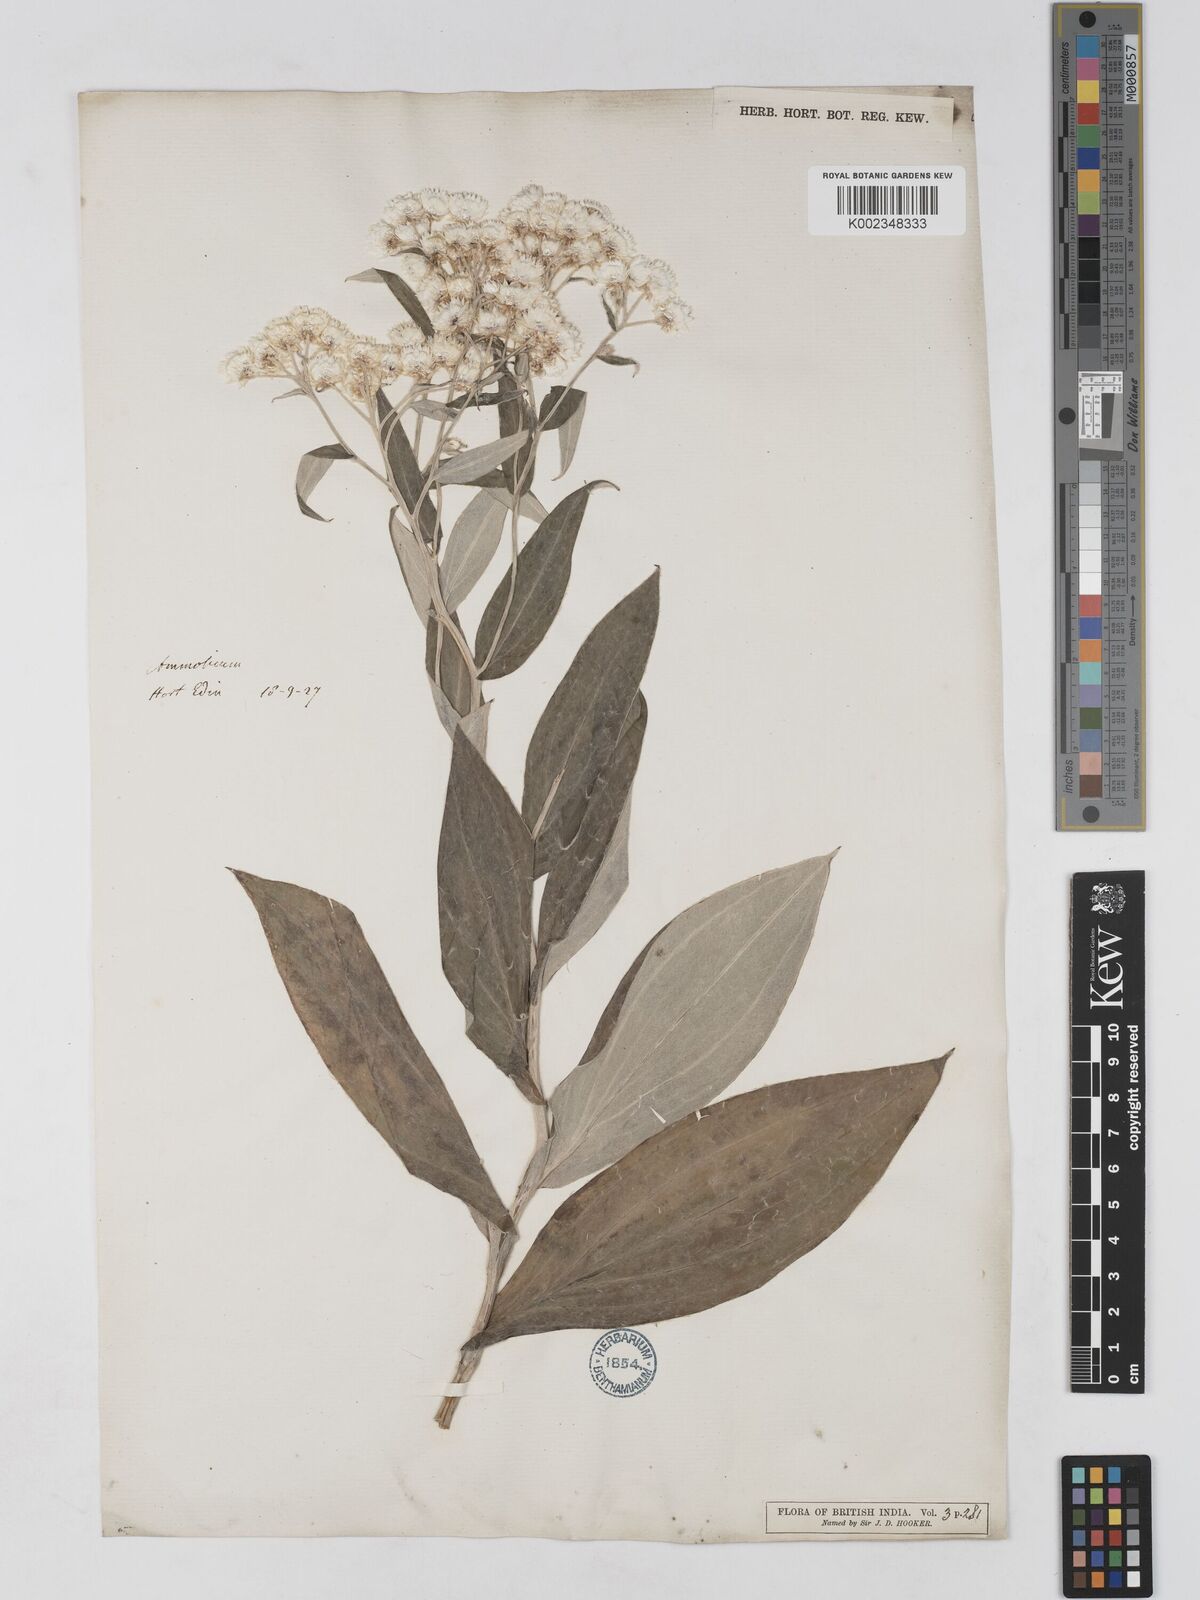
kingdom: Plantae
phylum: Tracheophyta
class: Magnoliopsida
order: Asterales
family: Asteraceae
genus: Anaphalis
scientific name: Anaphalis triplinervis
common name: Pearly everlasting
